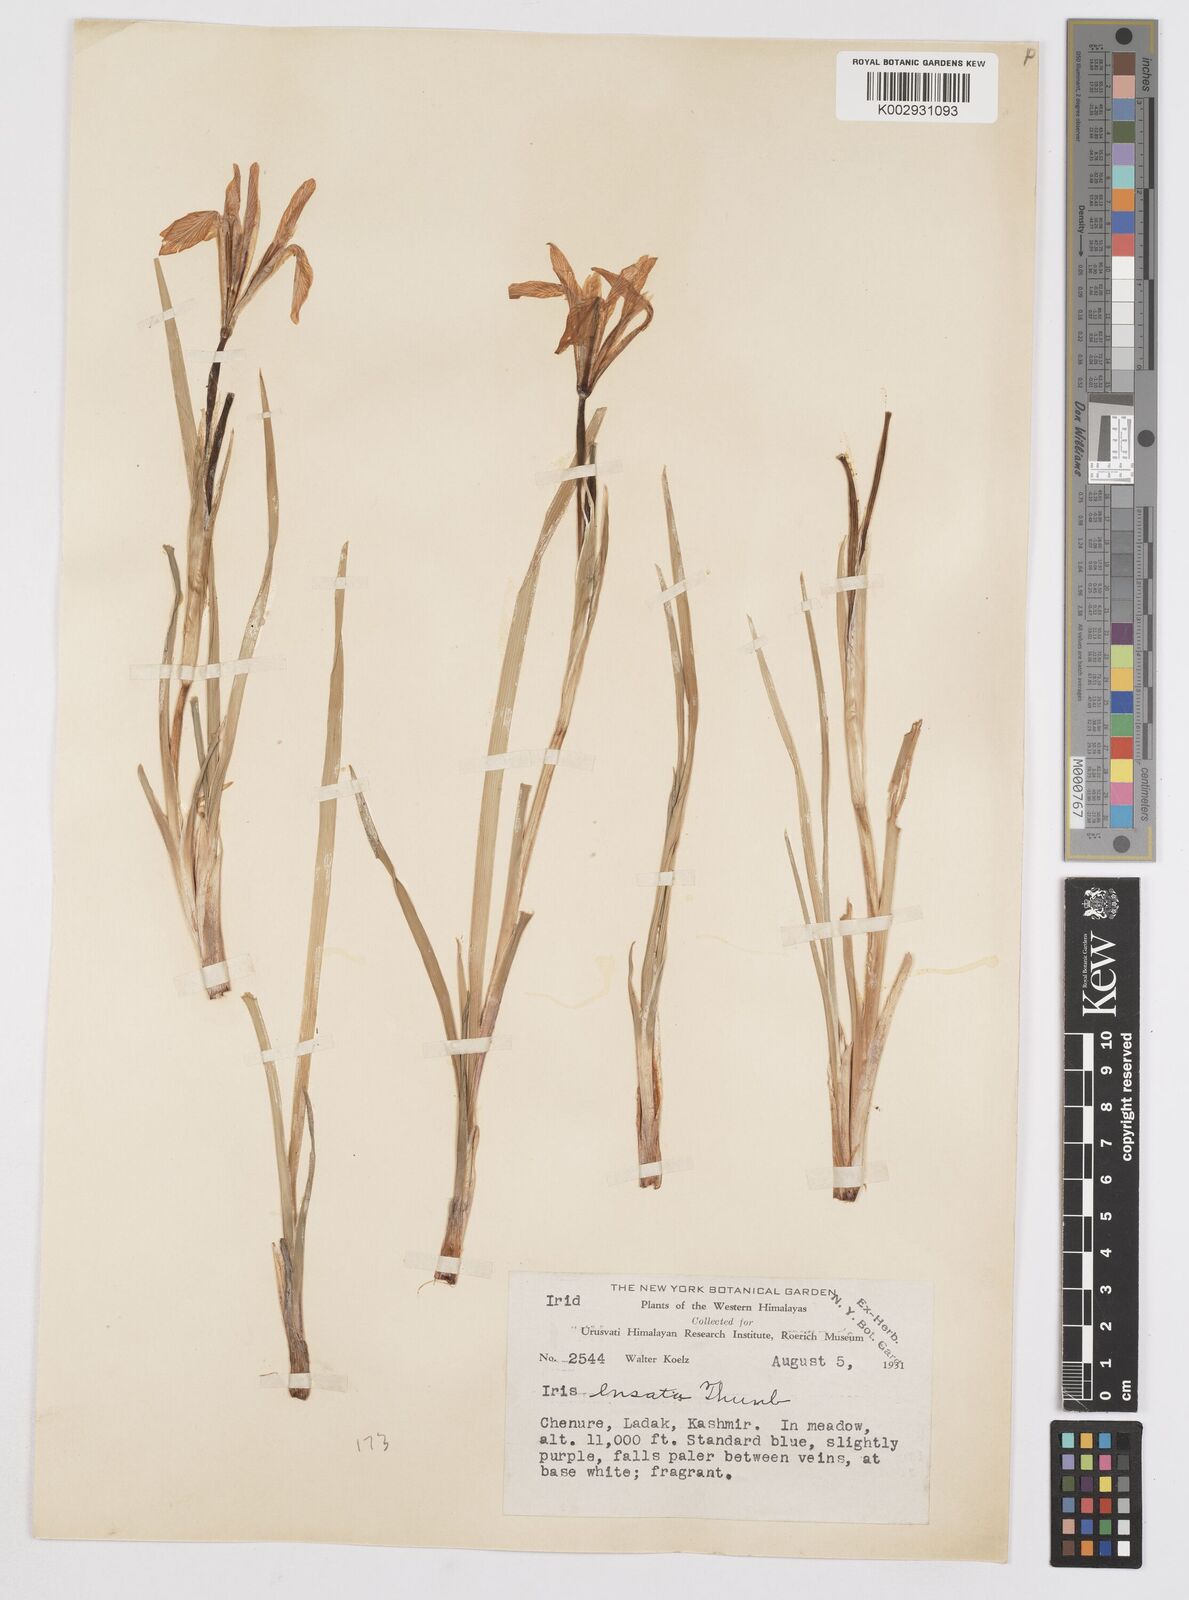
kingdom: Plantae
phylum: Tracheophyta
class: Liliopsida
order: Asparagales
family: Iridaceae
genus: Iris
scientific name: Iris ensata
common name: Beaked iris
